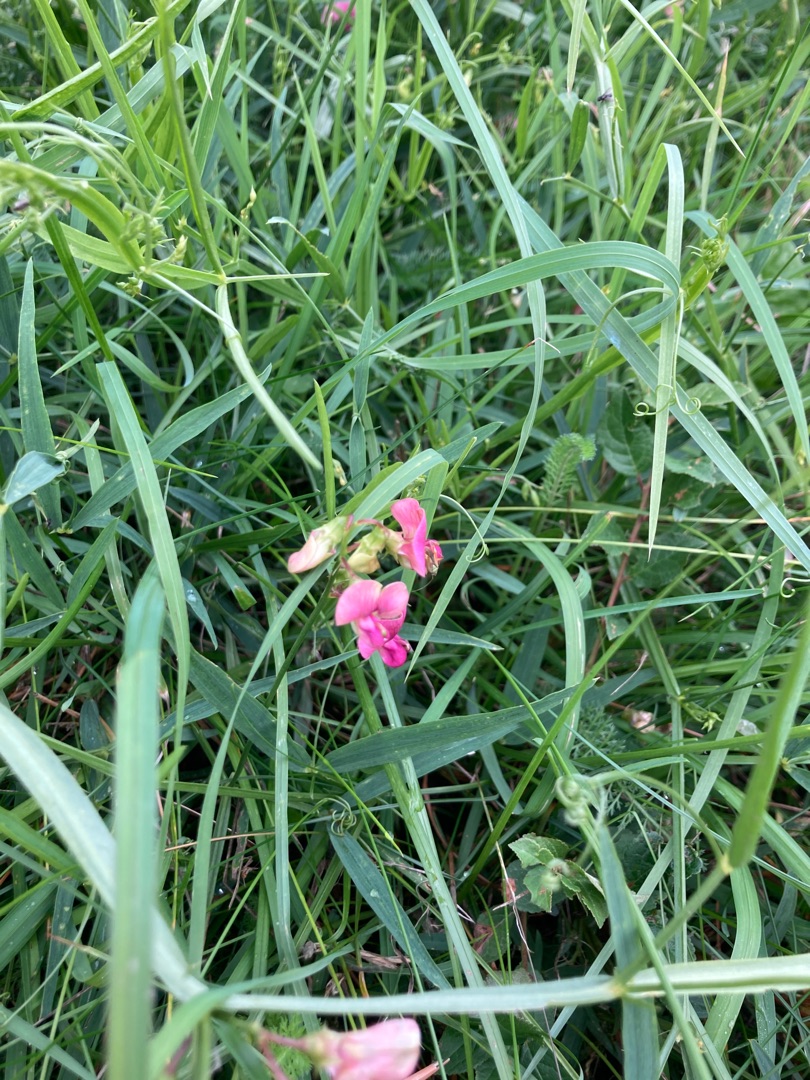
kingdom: Plantae
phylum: Tracheophyta
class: Magnoliopsida
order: Fabales
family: Fabaceae
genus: Lathyrus
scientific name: Lathyrus sylvestris
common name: Skov-fladbælg
